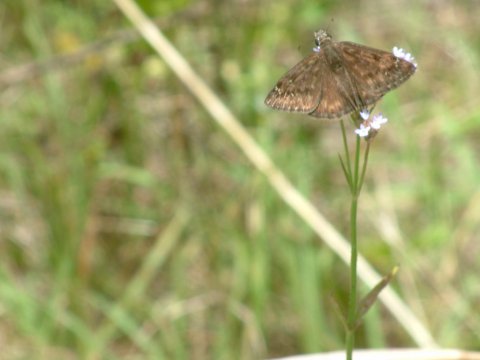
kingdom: Animalia
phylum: Arthropoda
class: Insecta
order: Lepidoptera
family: Hesperiidae
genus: Gesta
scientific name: Gesta
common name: Horace's Duskywing
